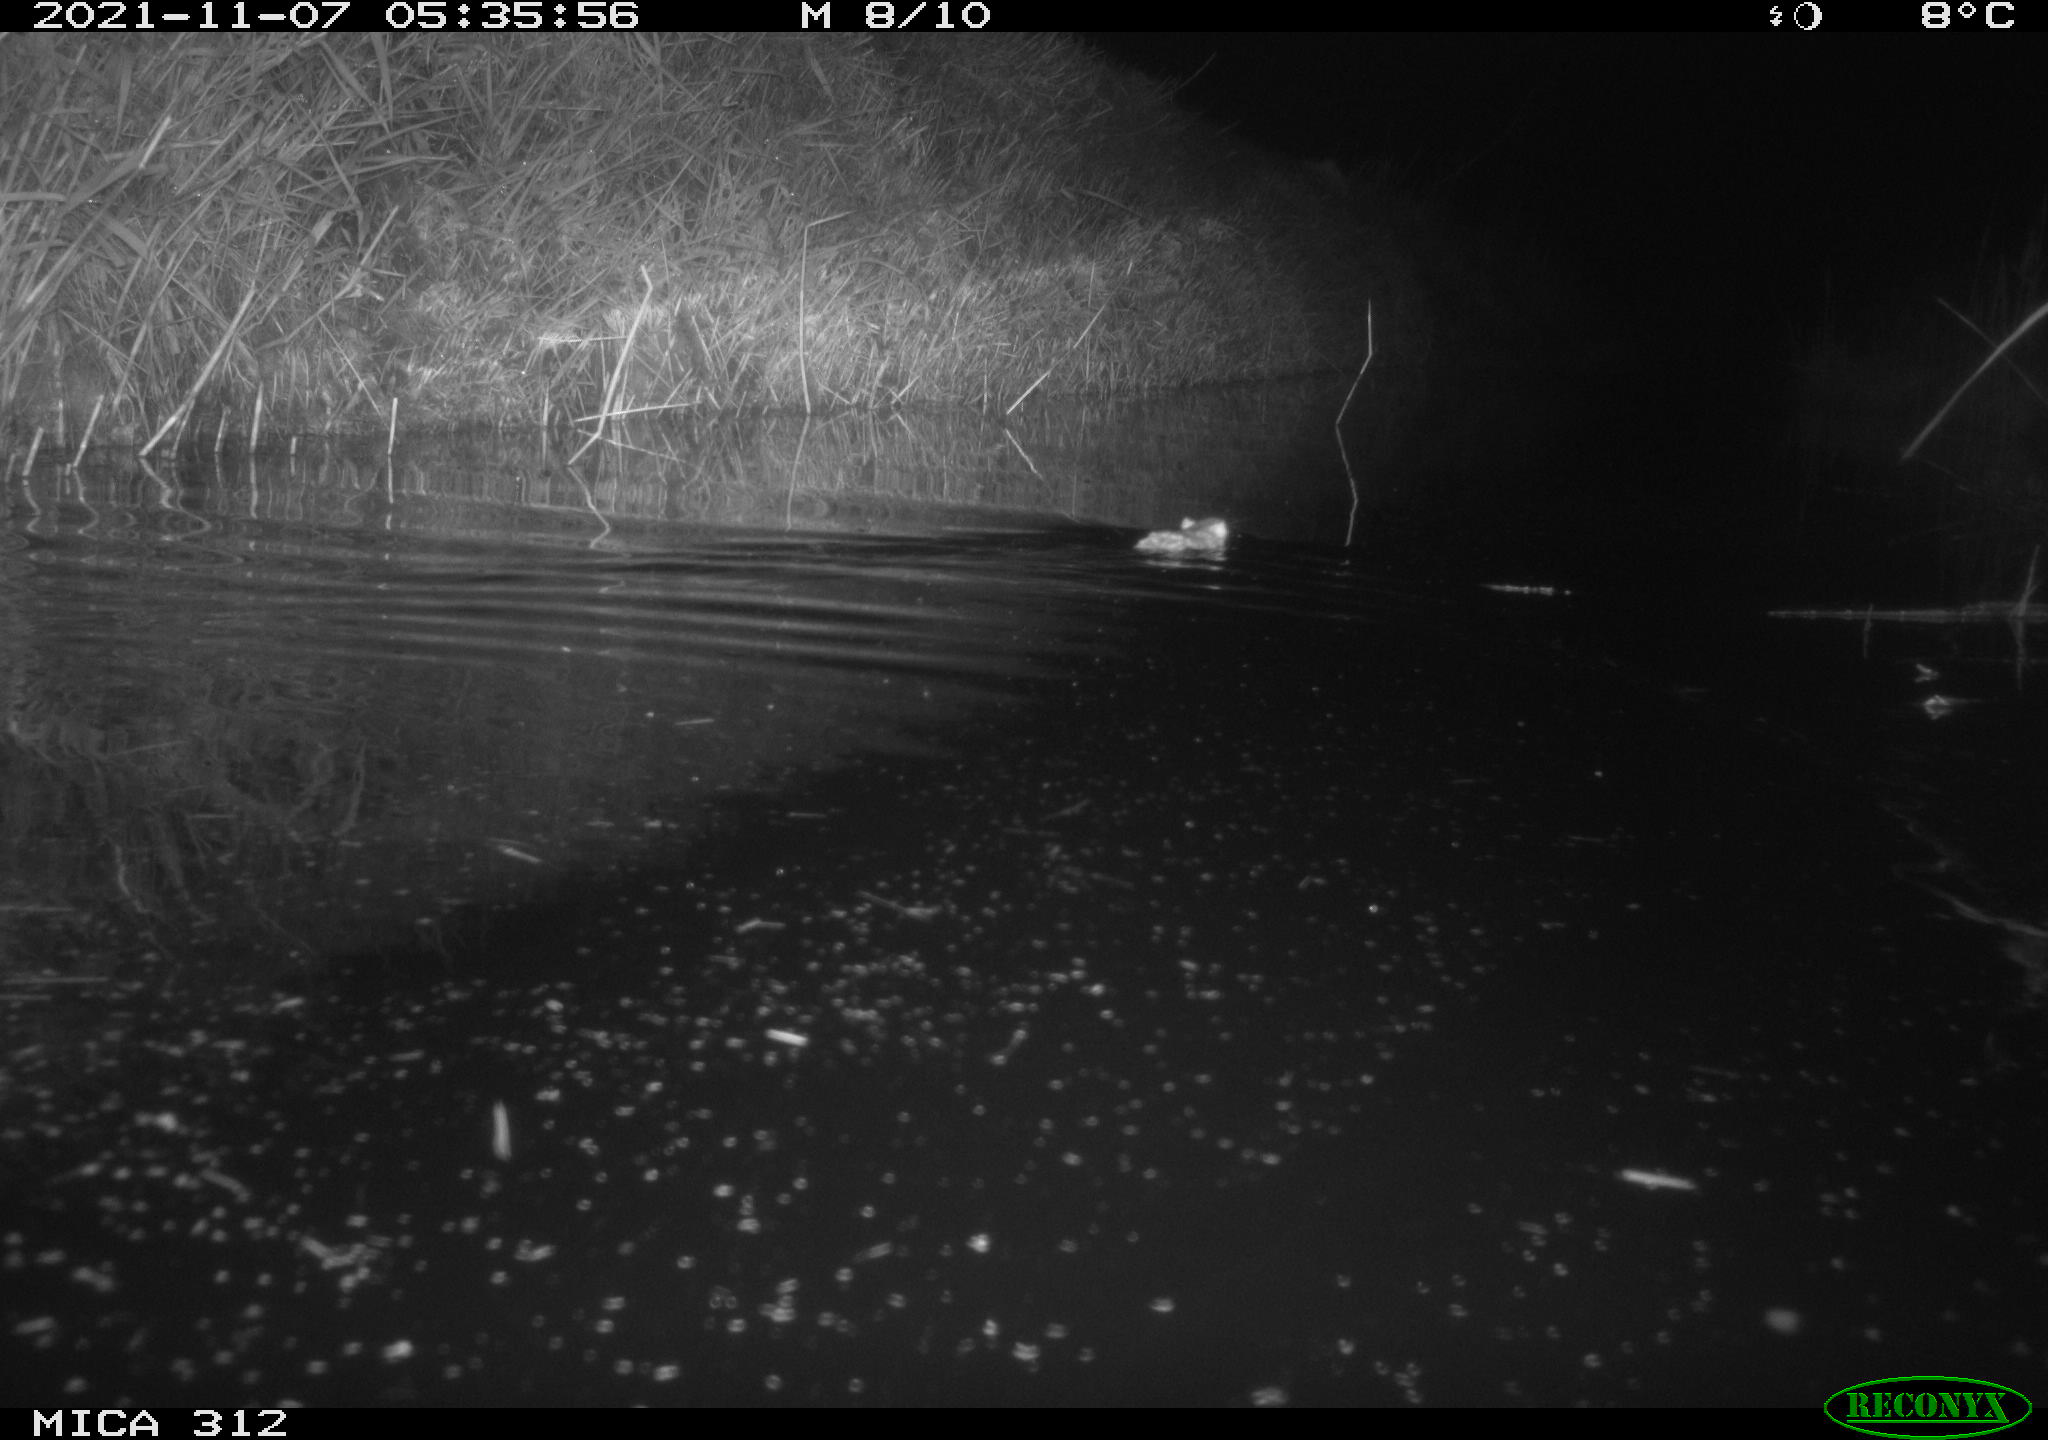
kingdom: Animalia
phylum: Chordata
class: Mammalia
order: Rodentia
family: Muridae
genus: Rattus
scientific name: Rattus norvegicus
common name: Brown rat
